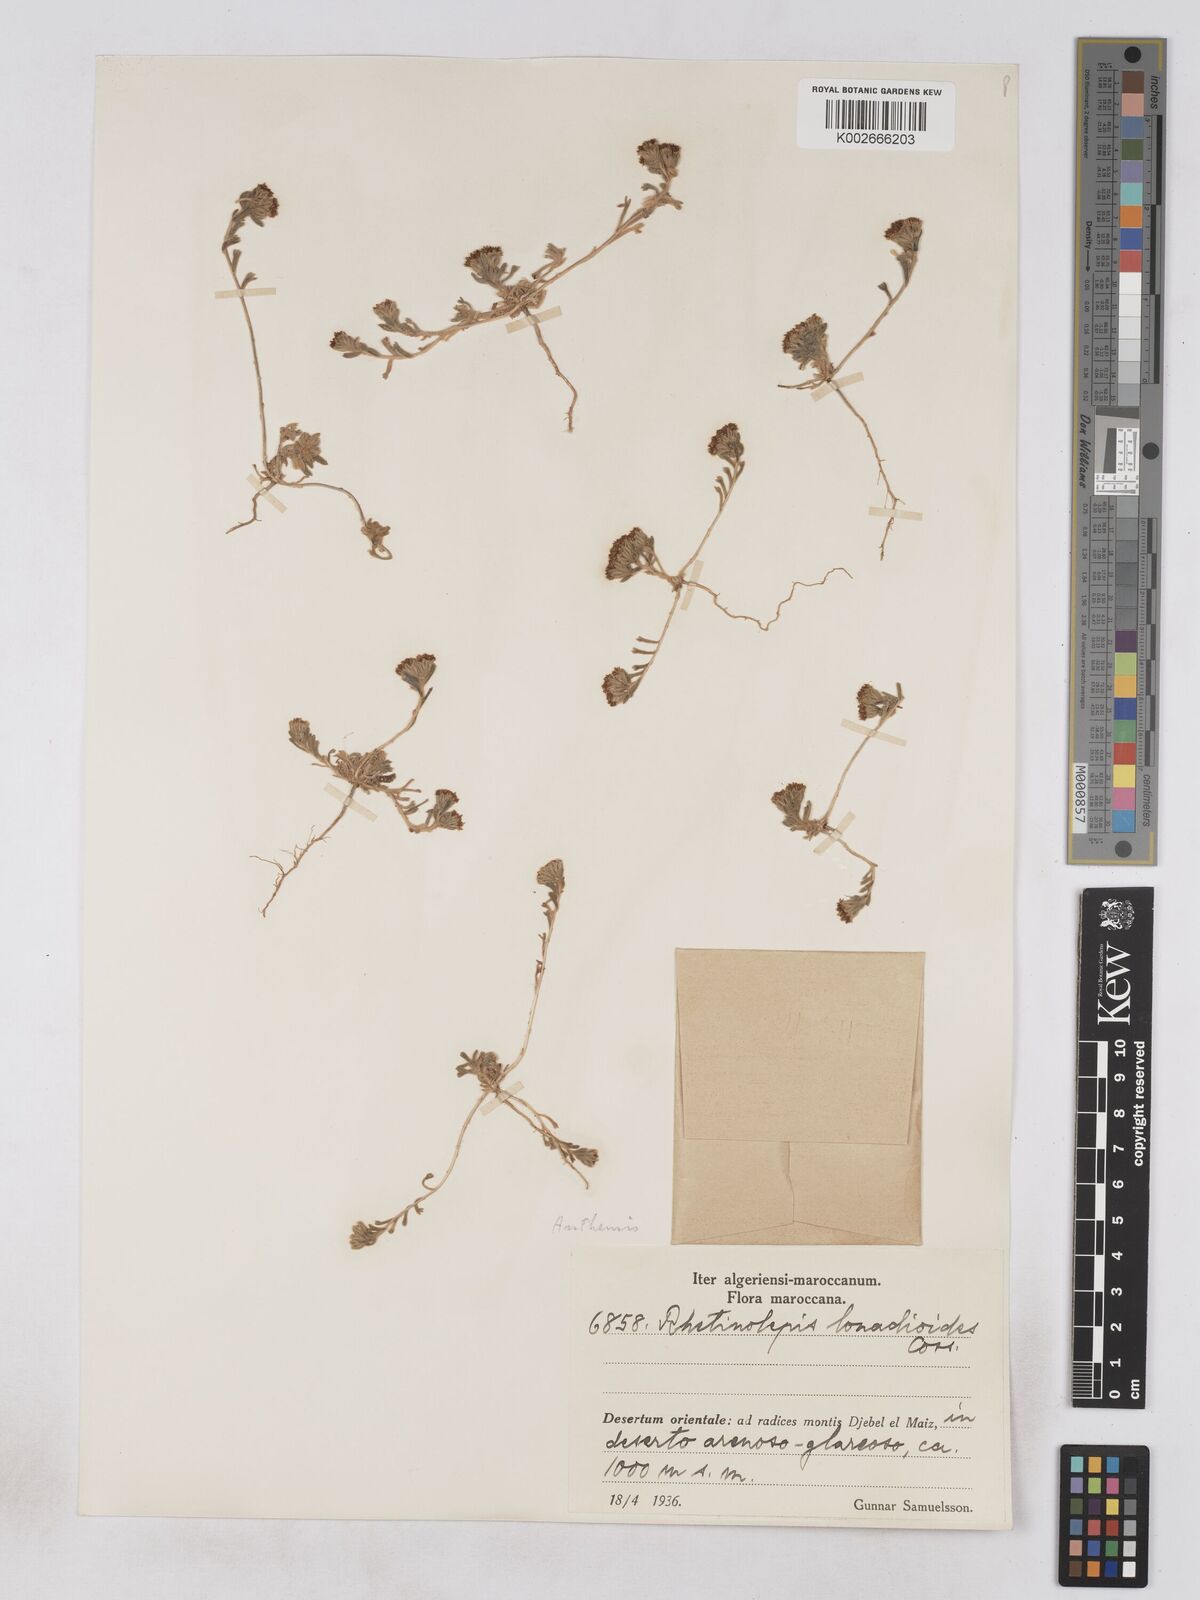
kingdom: Plantae
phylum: Tracheophyta
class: Magnoliopsida
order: Asterales
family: Asteraceae
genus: Rhetinolepis
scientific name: Rhetinolepis lonadioides
